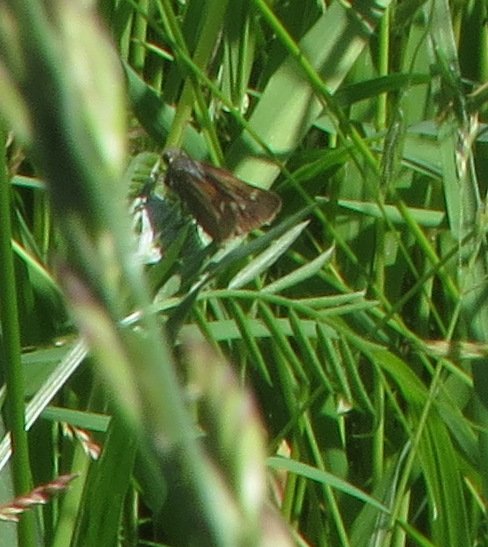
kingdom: Animalia
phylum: Arthropoda
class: Insecta
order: Lepidoptera
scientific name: Lepidoptera
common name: Butterflies
